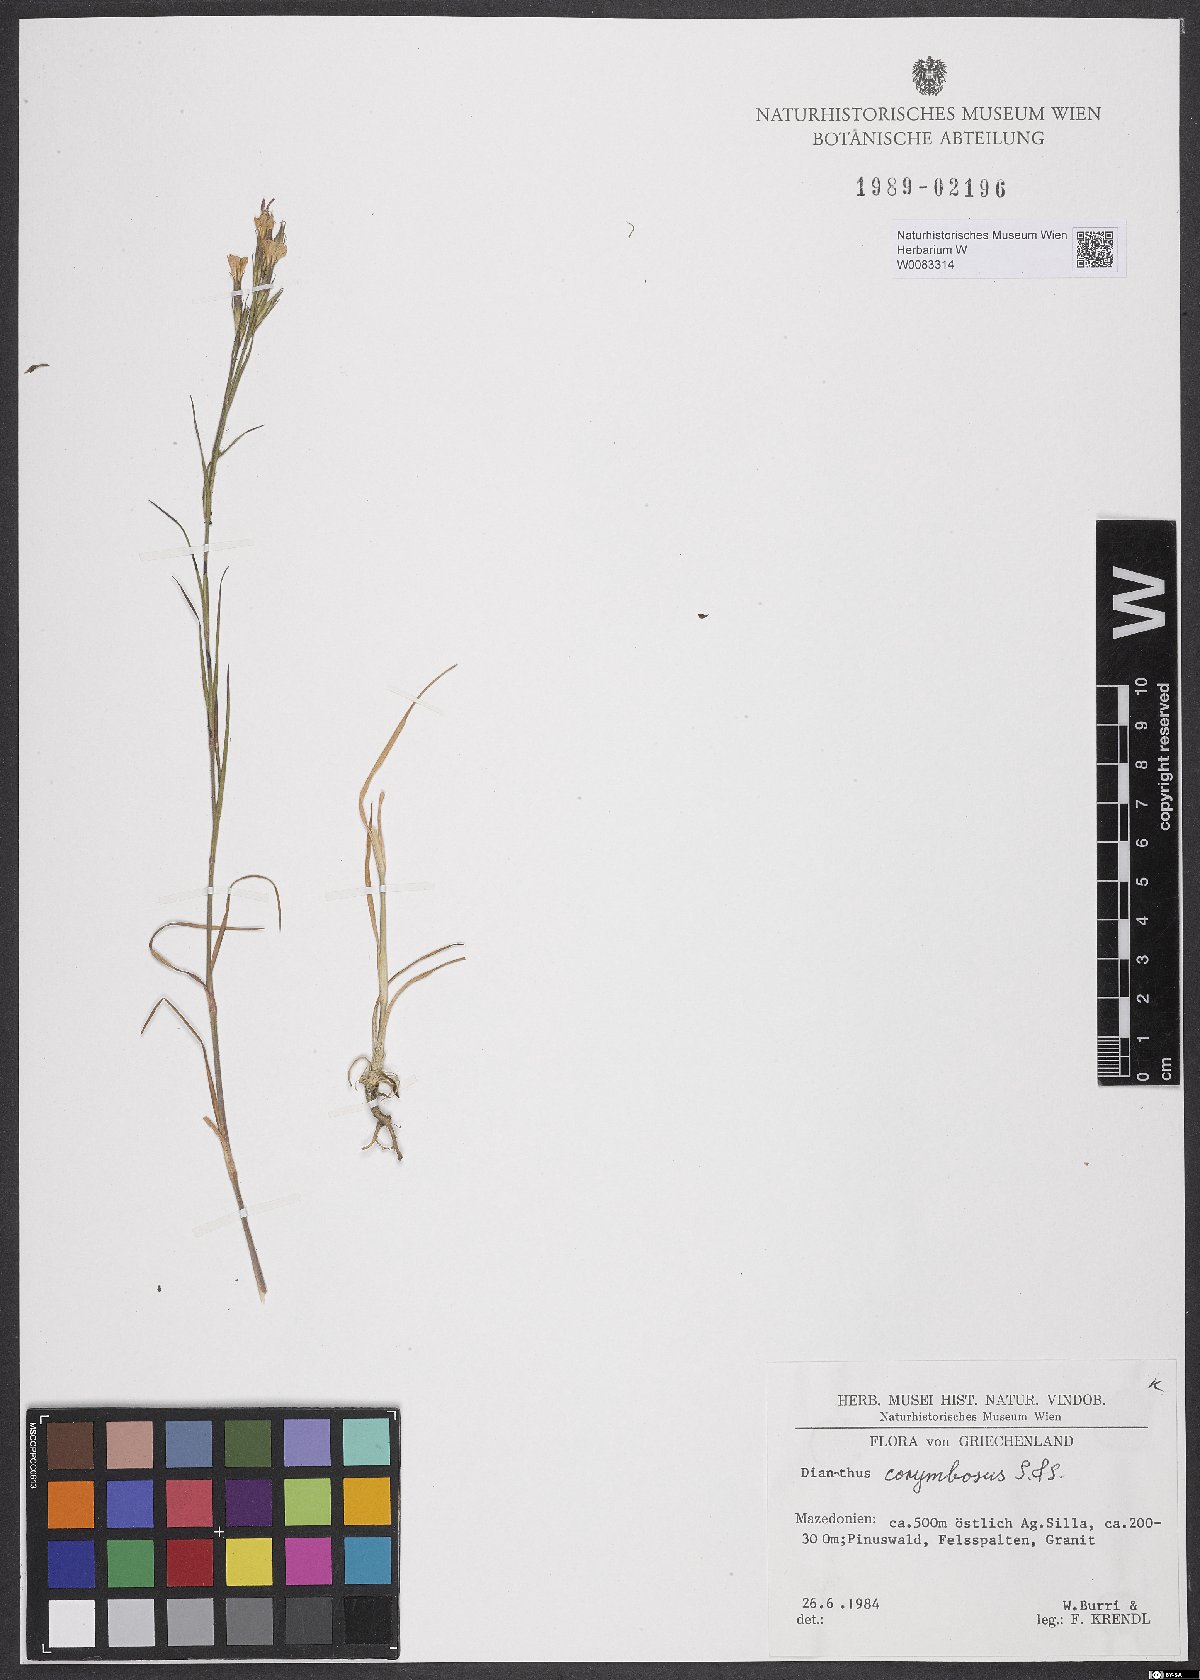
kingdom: Plantae
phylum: Tracheophyta
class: Magnoliopsida
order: Caryophyllales
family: Caryophyllaceae
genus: Dianthus
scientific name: Dianthus corymbosus
